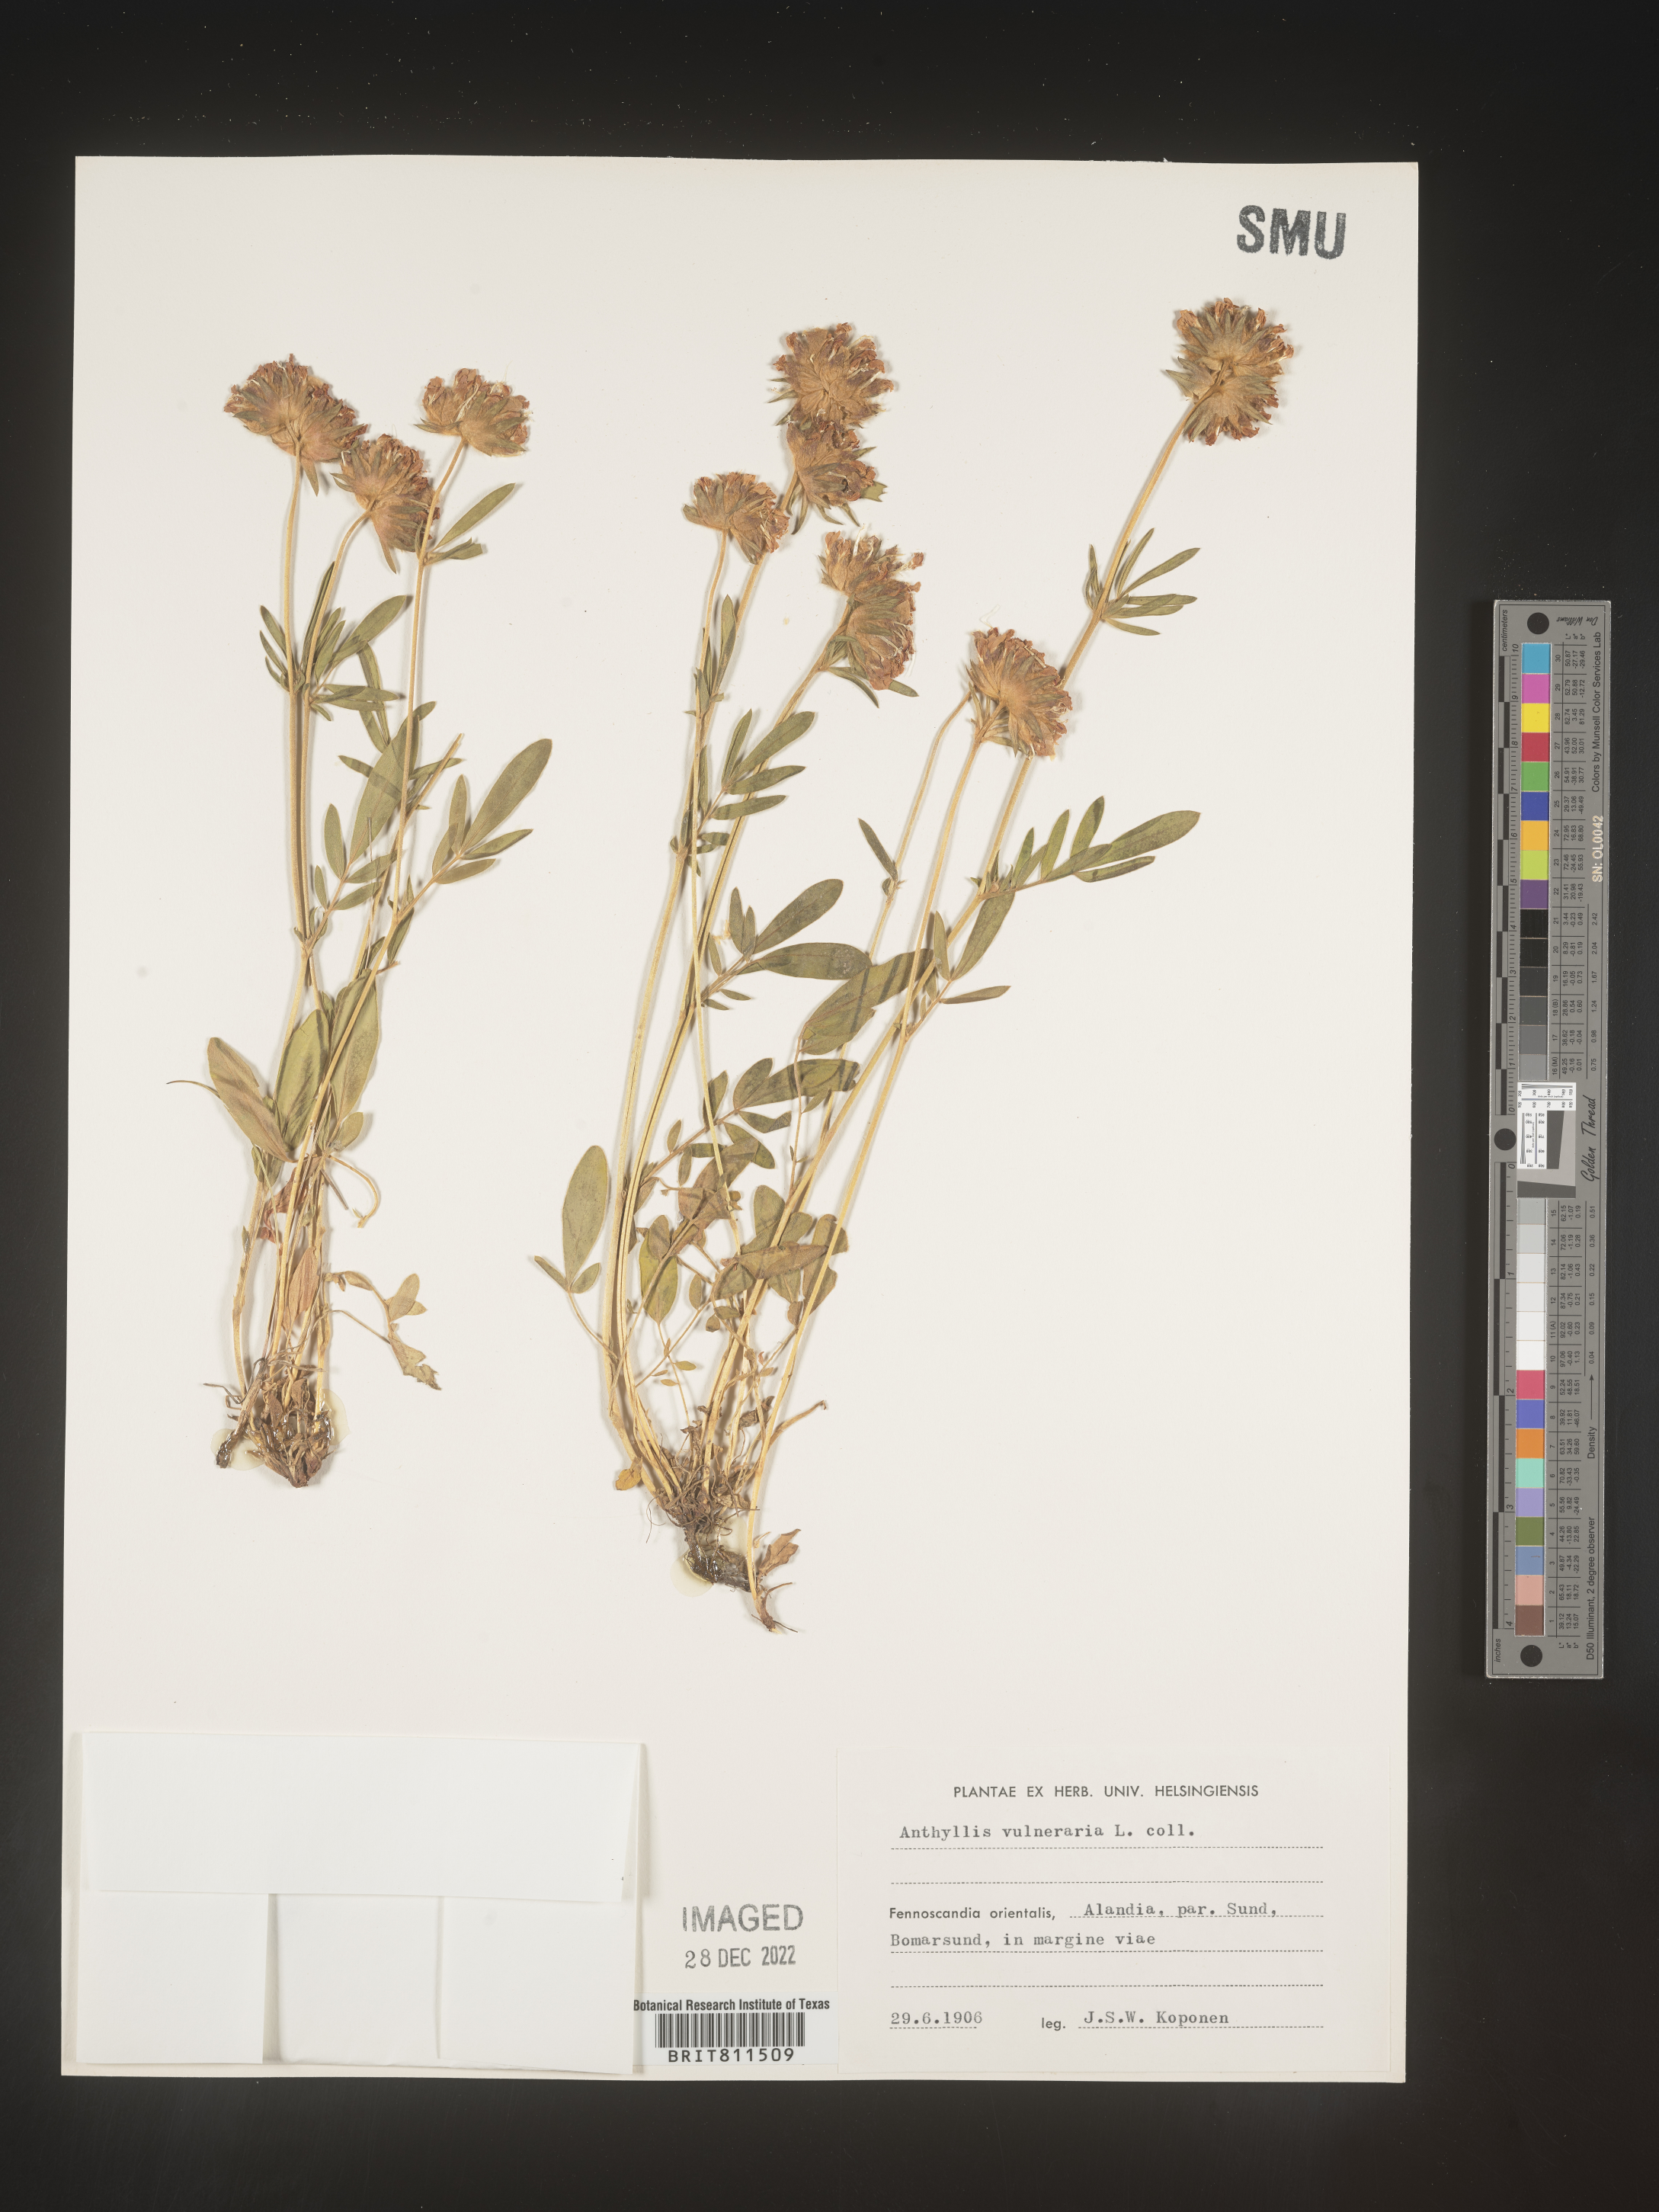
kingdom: Plantae
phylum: Tracheophyta
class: Magnoliopsida
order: Fabales
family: Fabaceae
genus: Anthyllis
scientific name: Anthyllis vulneraria
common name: Kidney vetch
